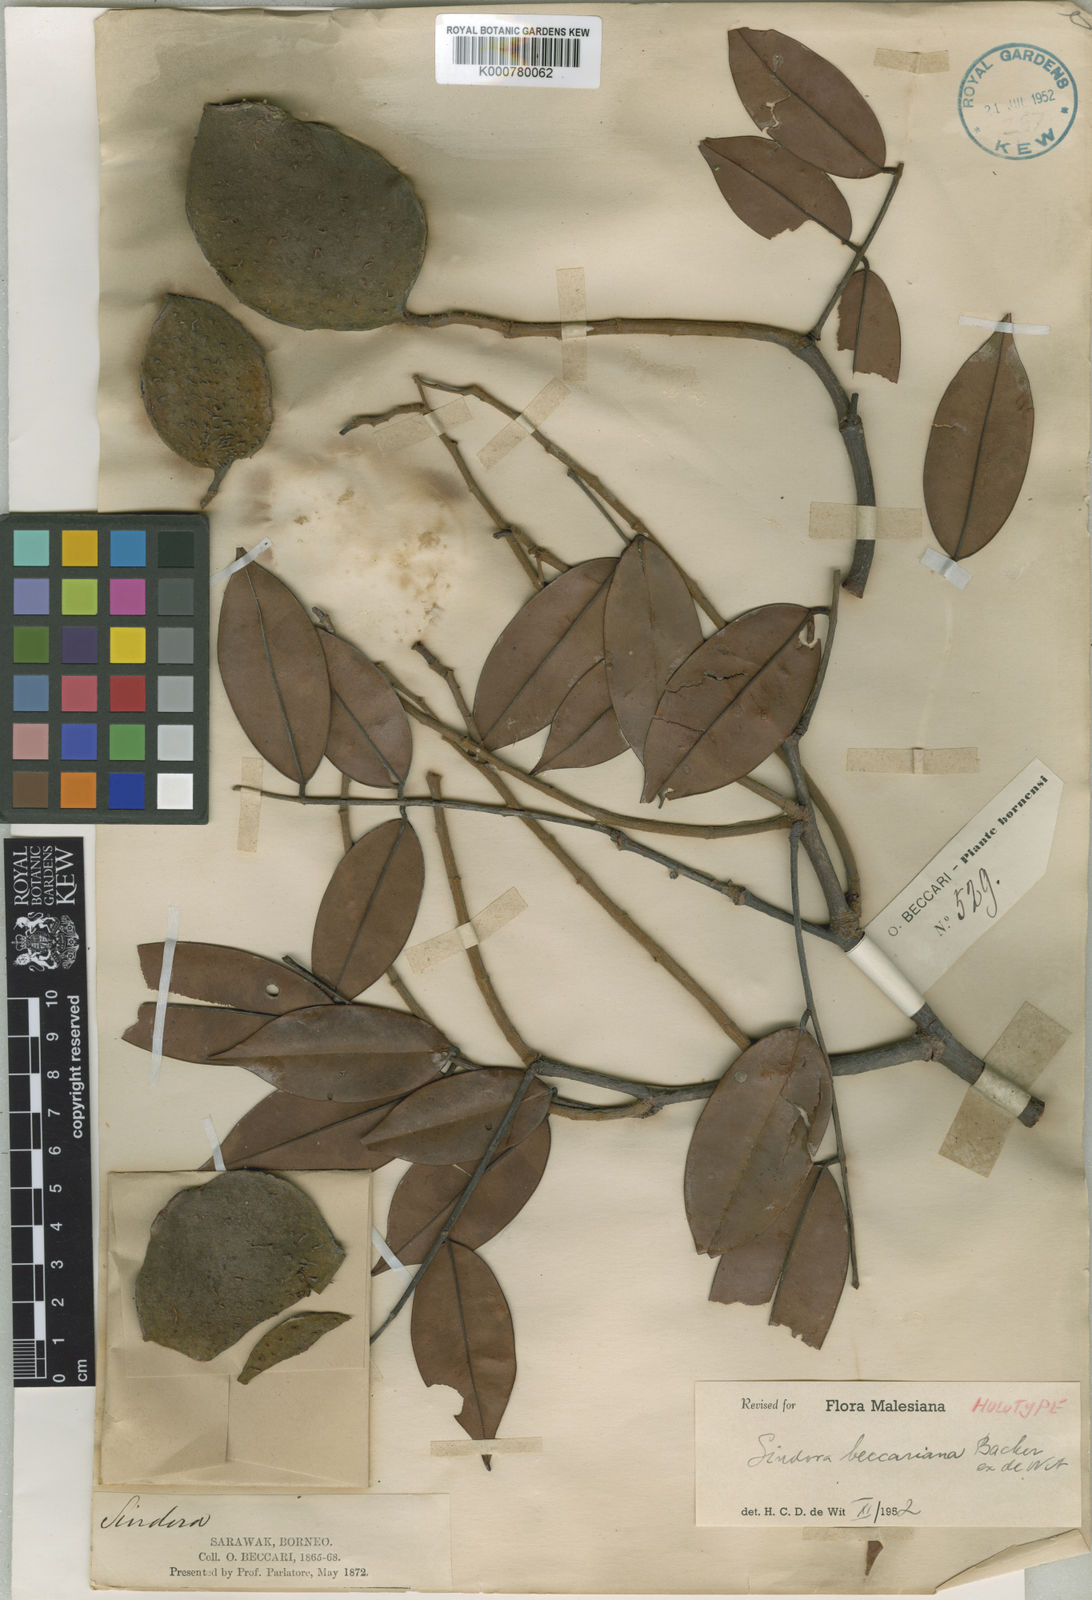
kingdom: Plantae
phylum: Tracheophyta
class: Magnoliopsida
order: Fabales
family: Fabaceae
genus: Sindora
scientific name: Sindora beccariana
